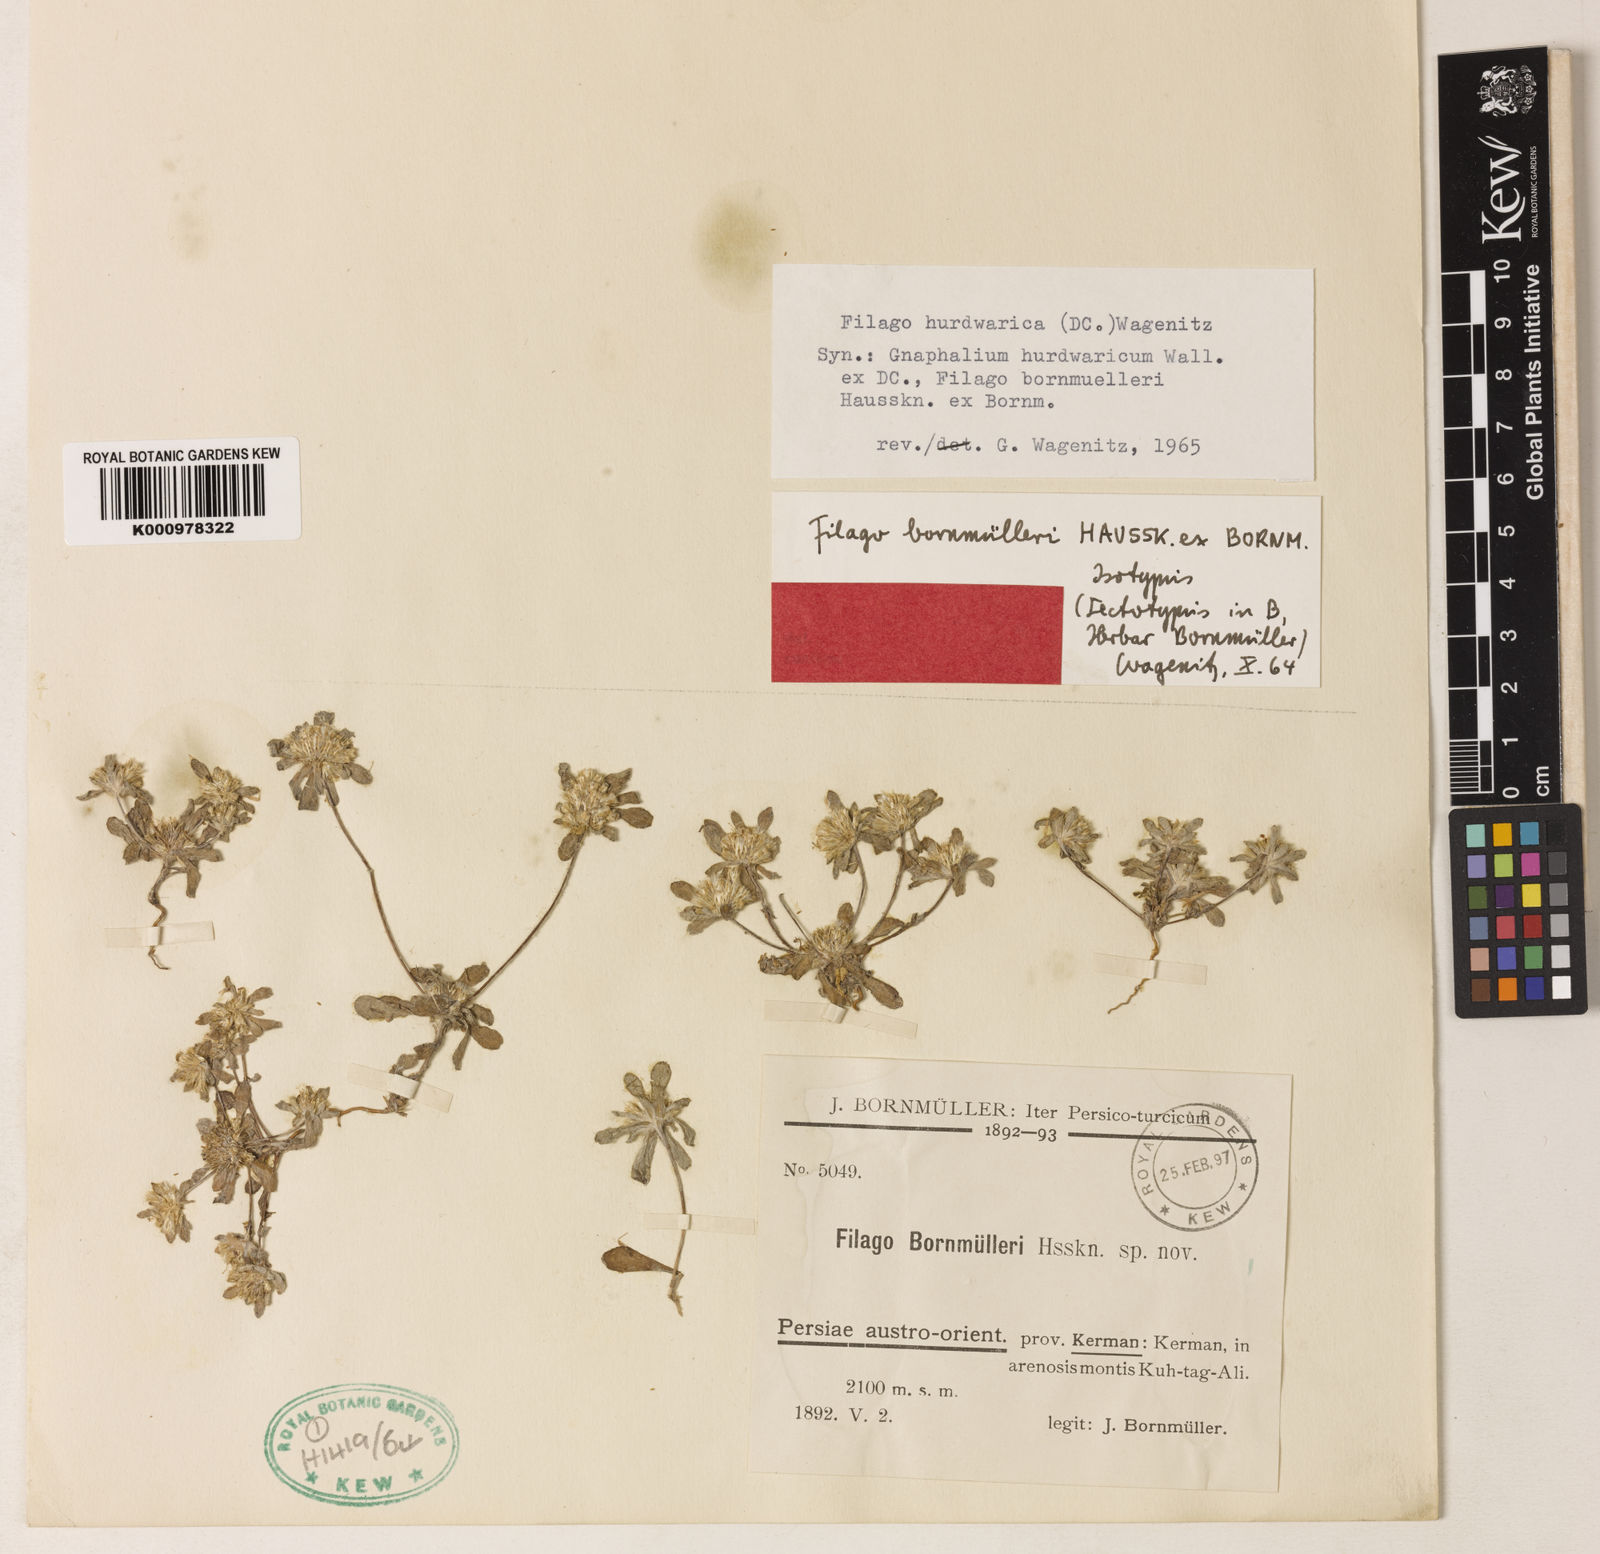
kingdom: Plantae
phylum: Tracheophyta
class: Magnoliopsida
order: Asterales
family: Asteraceae
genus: Filago
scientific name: Filago hurdwarica
